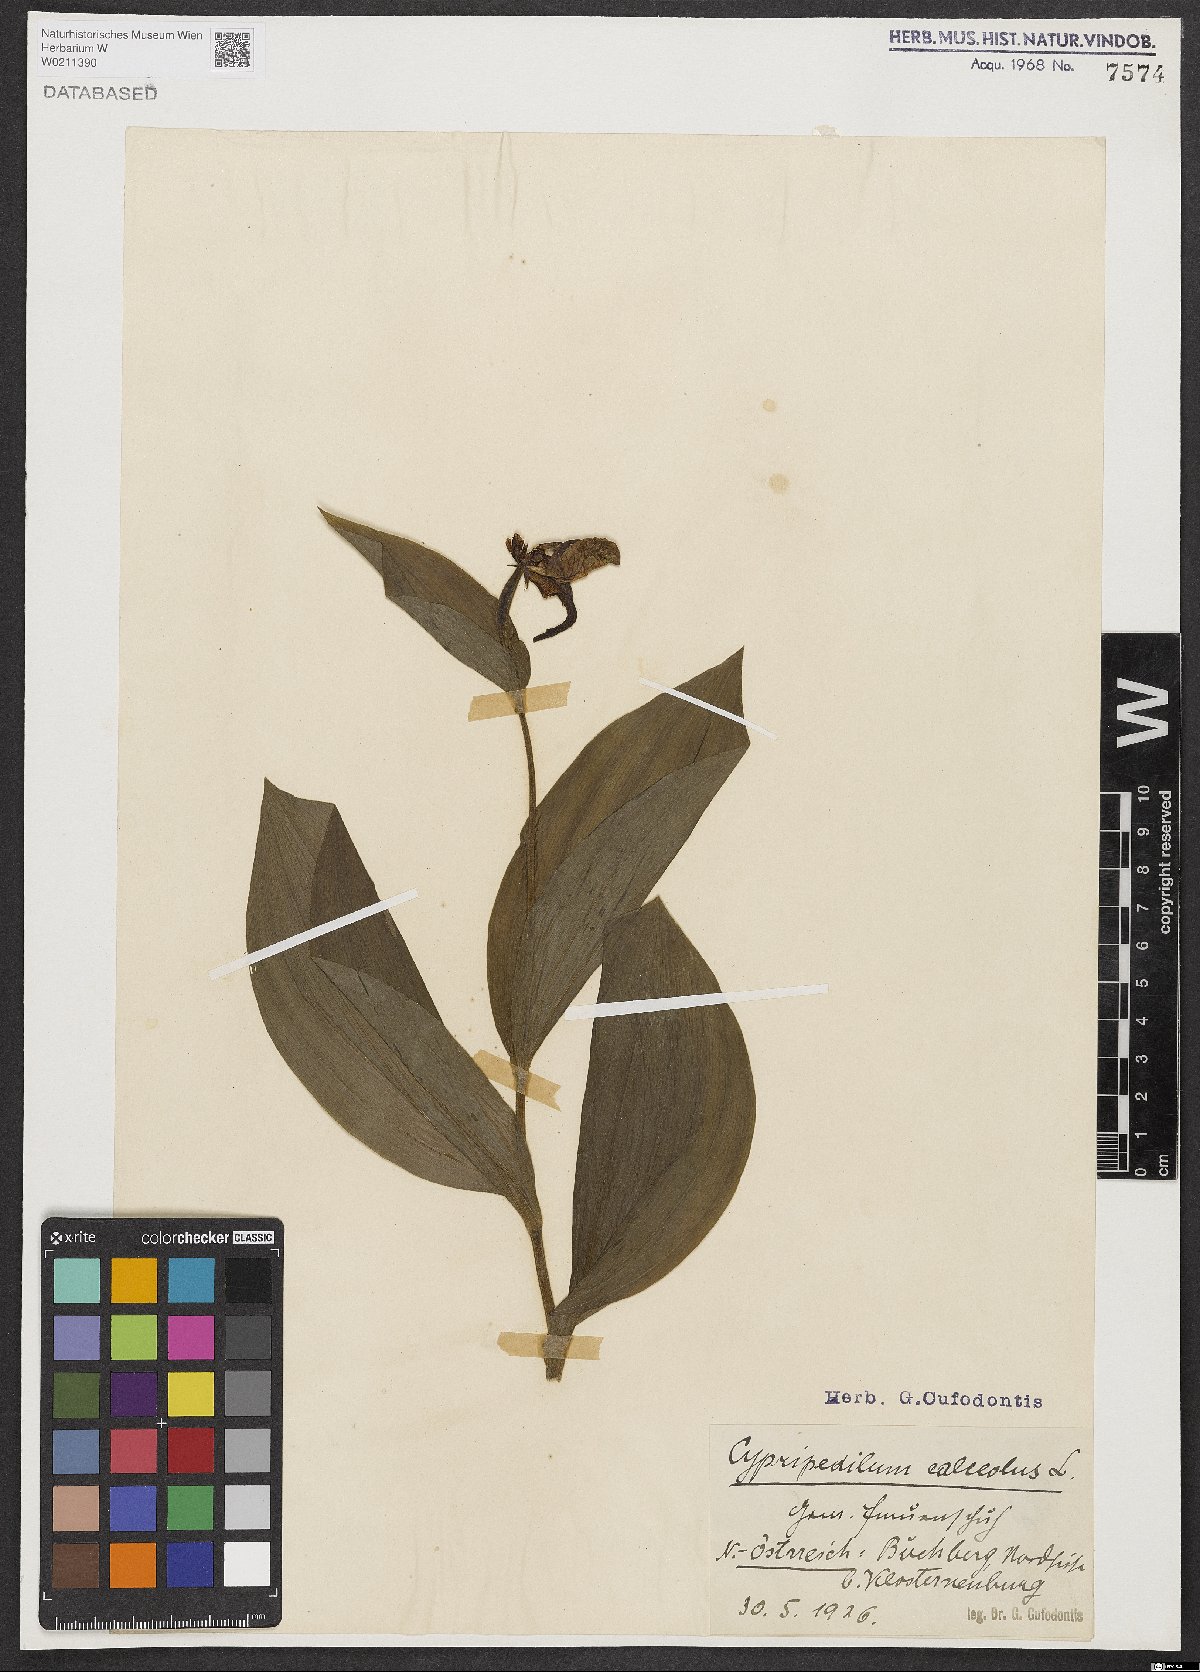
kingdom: Plantae
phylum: Tracheophyta
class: Liliopsida
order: Asparagales
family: Orchidaceae
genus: Cypripedium
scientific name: Cypripedium calceolus
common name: Lady's-slipper
